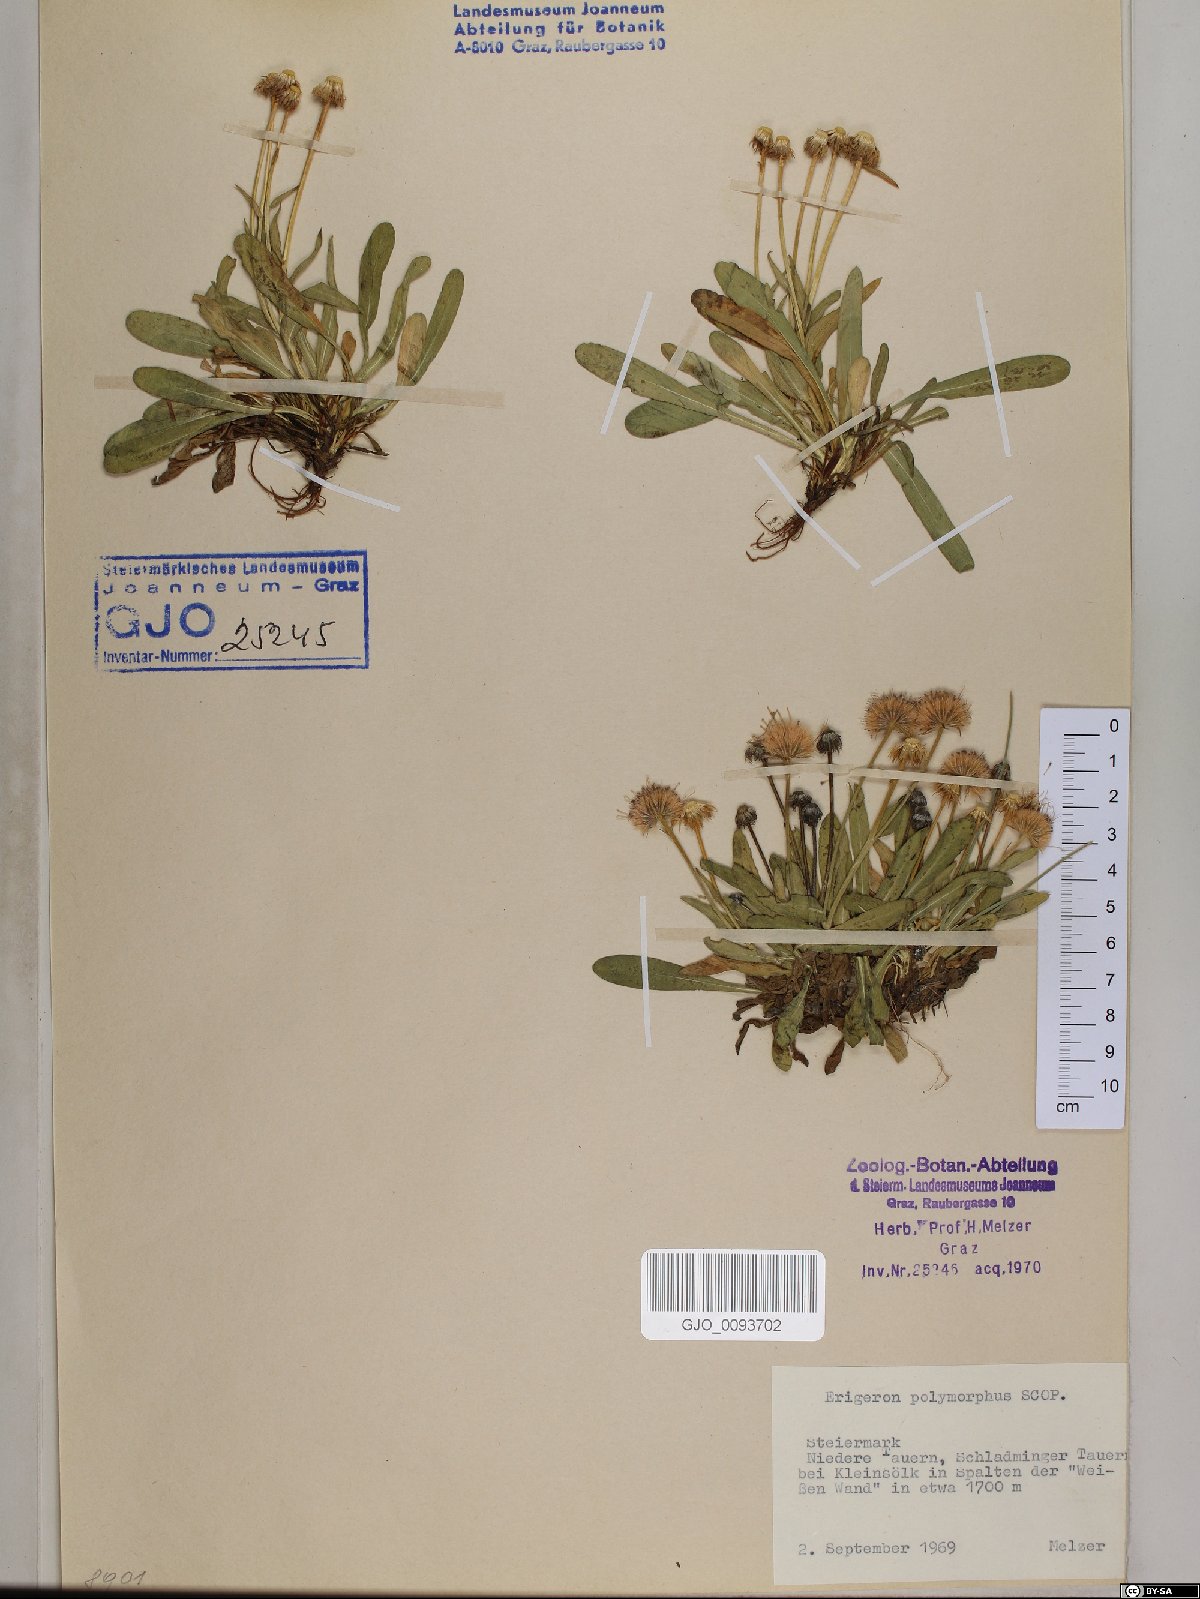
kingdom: Plantae
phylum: Tracheophyta
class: Magnoliopsida
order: Asterales
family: Asteraceae
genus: Erigeron
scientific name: Erigeron alpinus
